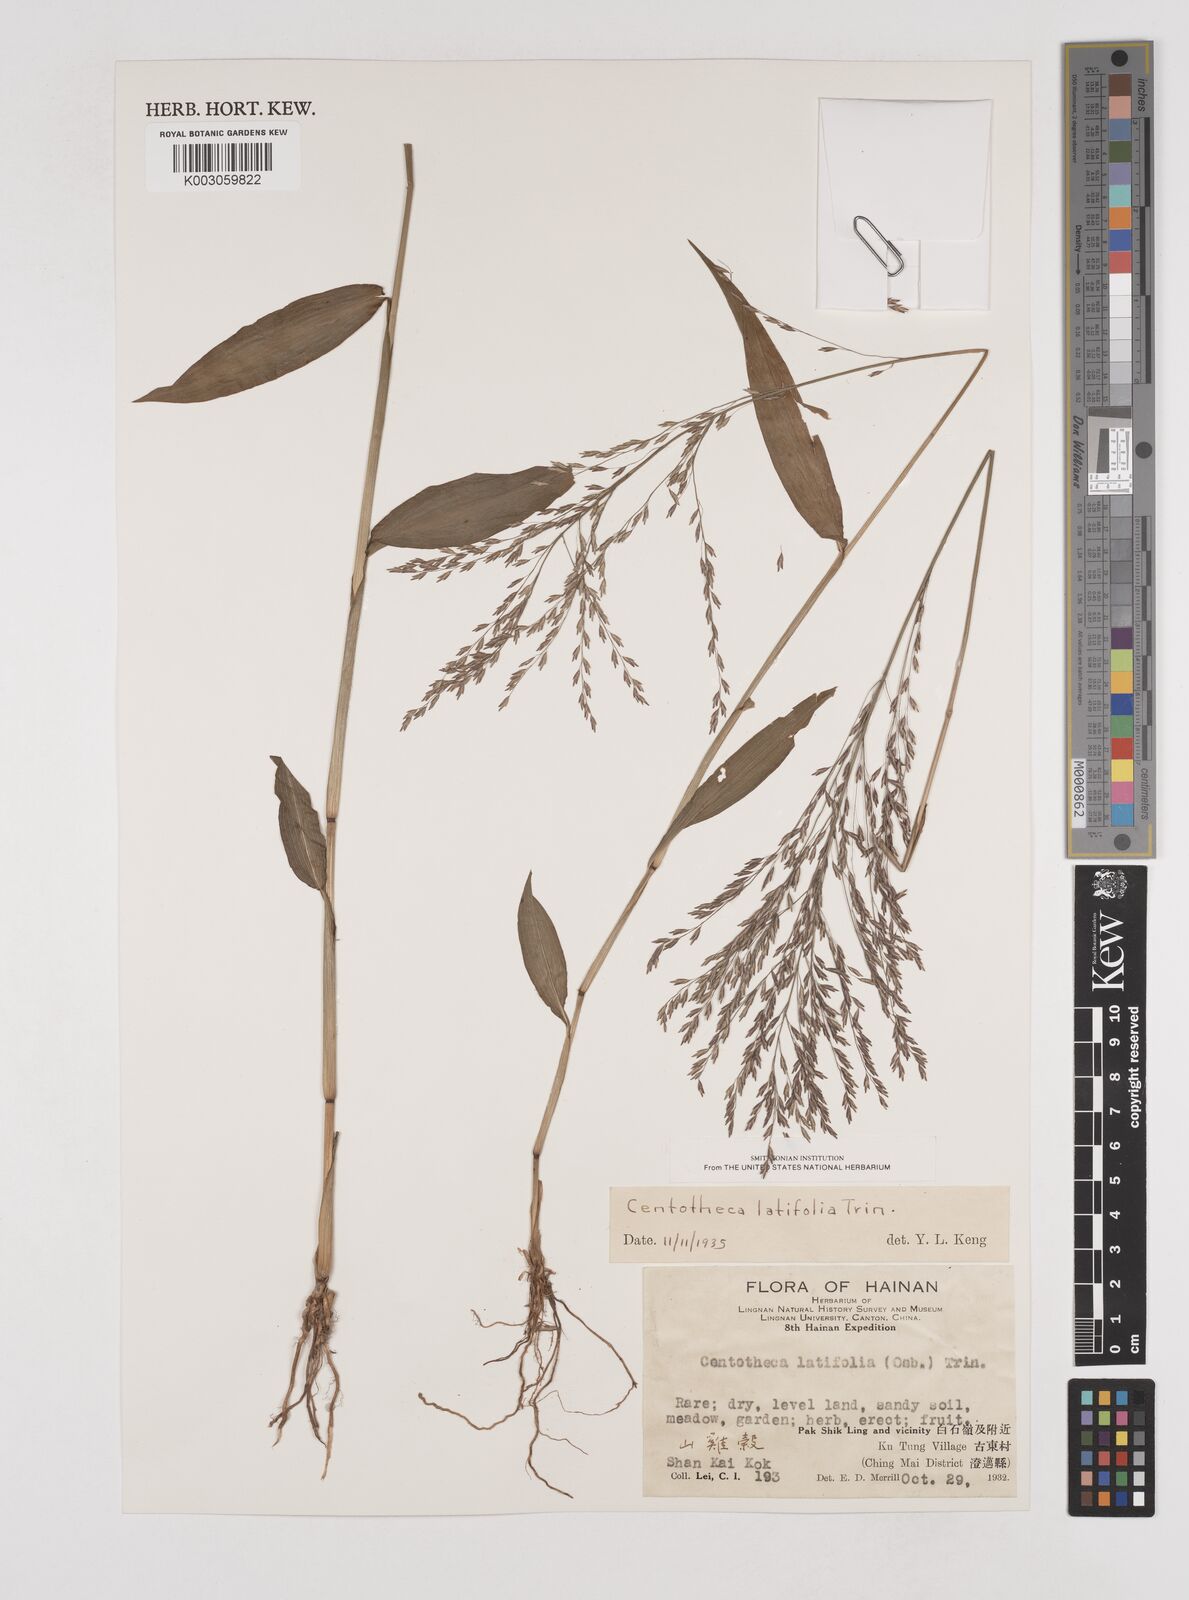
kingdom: Plantae
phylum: Tracheophyta
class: Liliopsida
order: Poales
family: Poaceae
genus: Centotheca
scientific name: Centotheca lappacea
